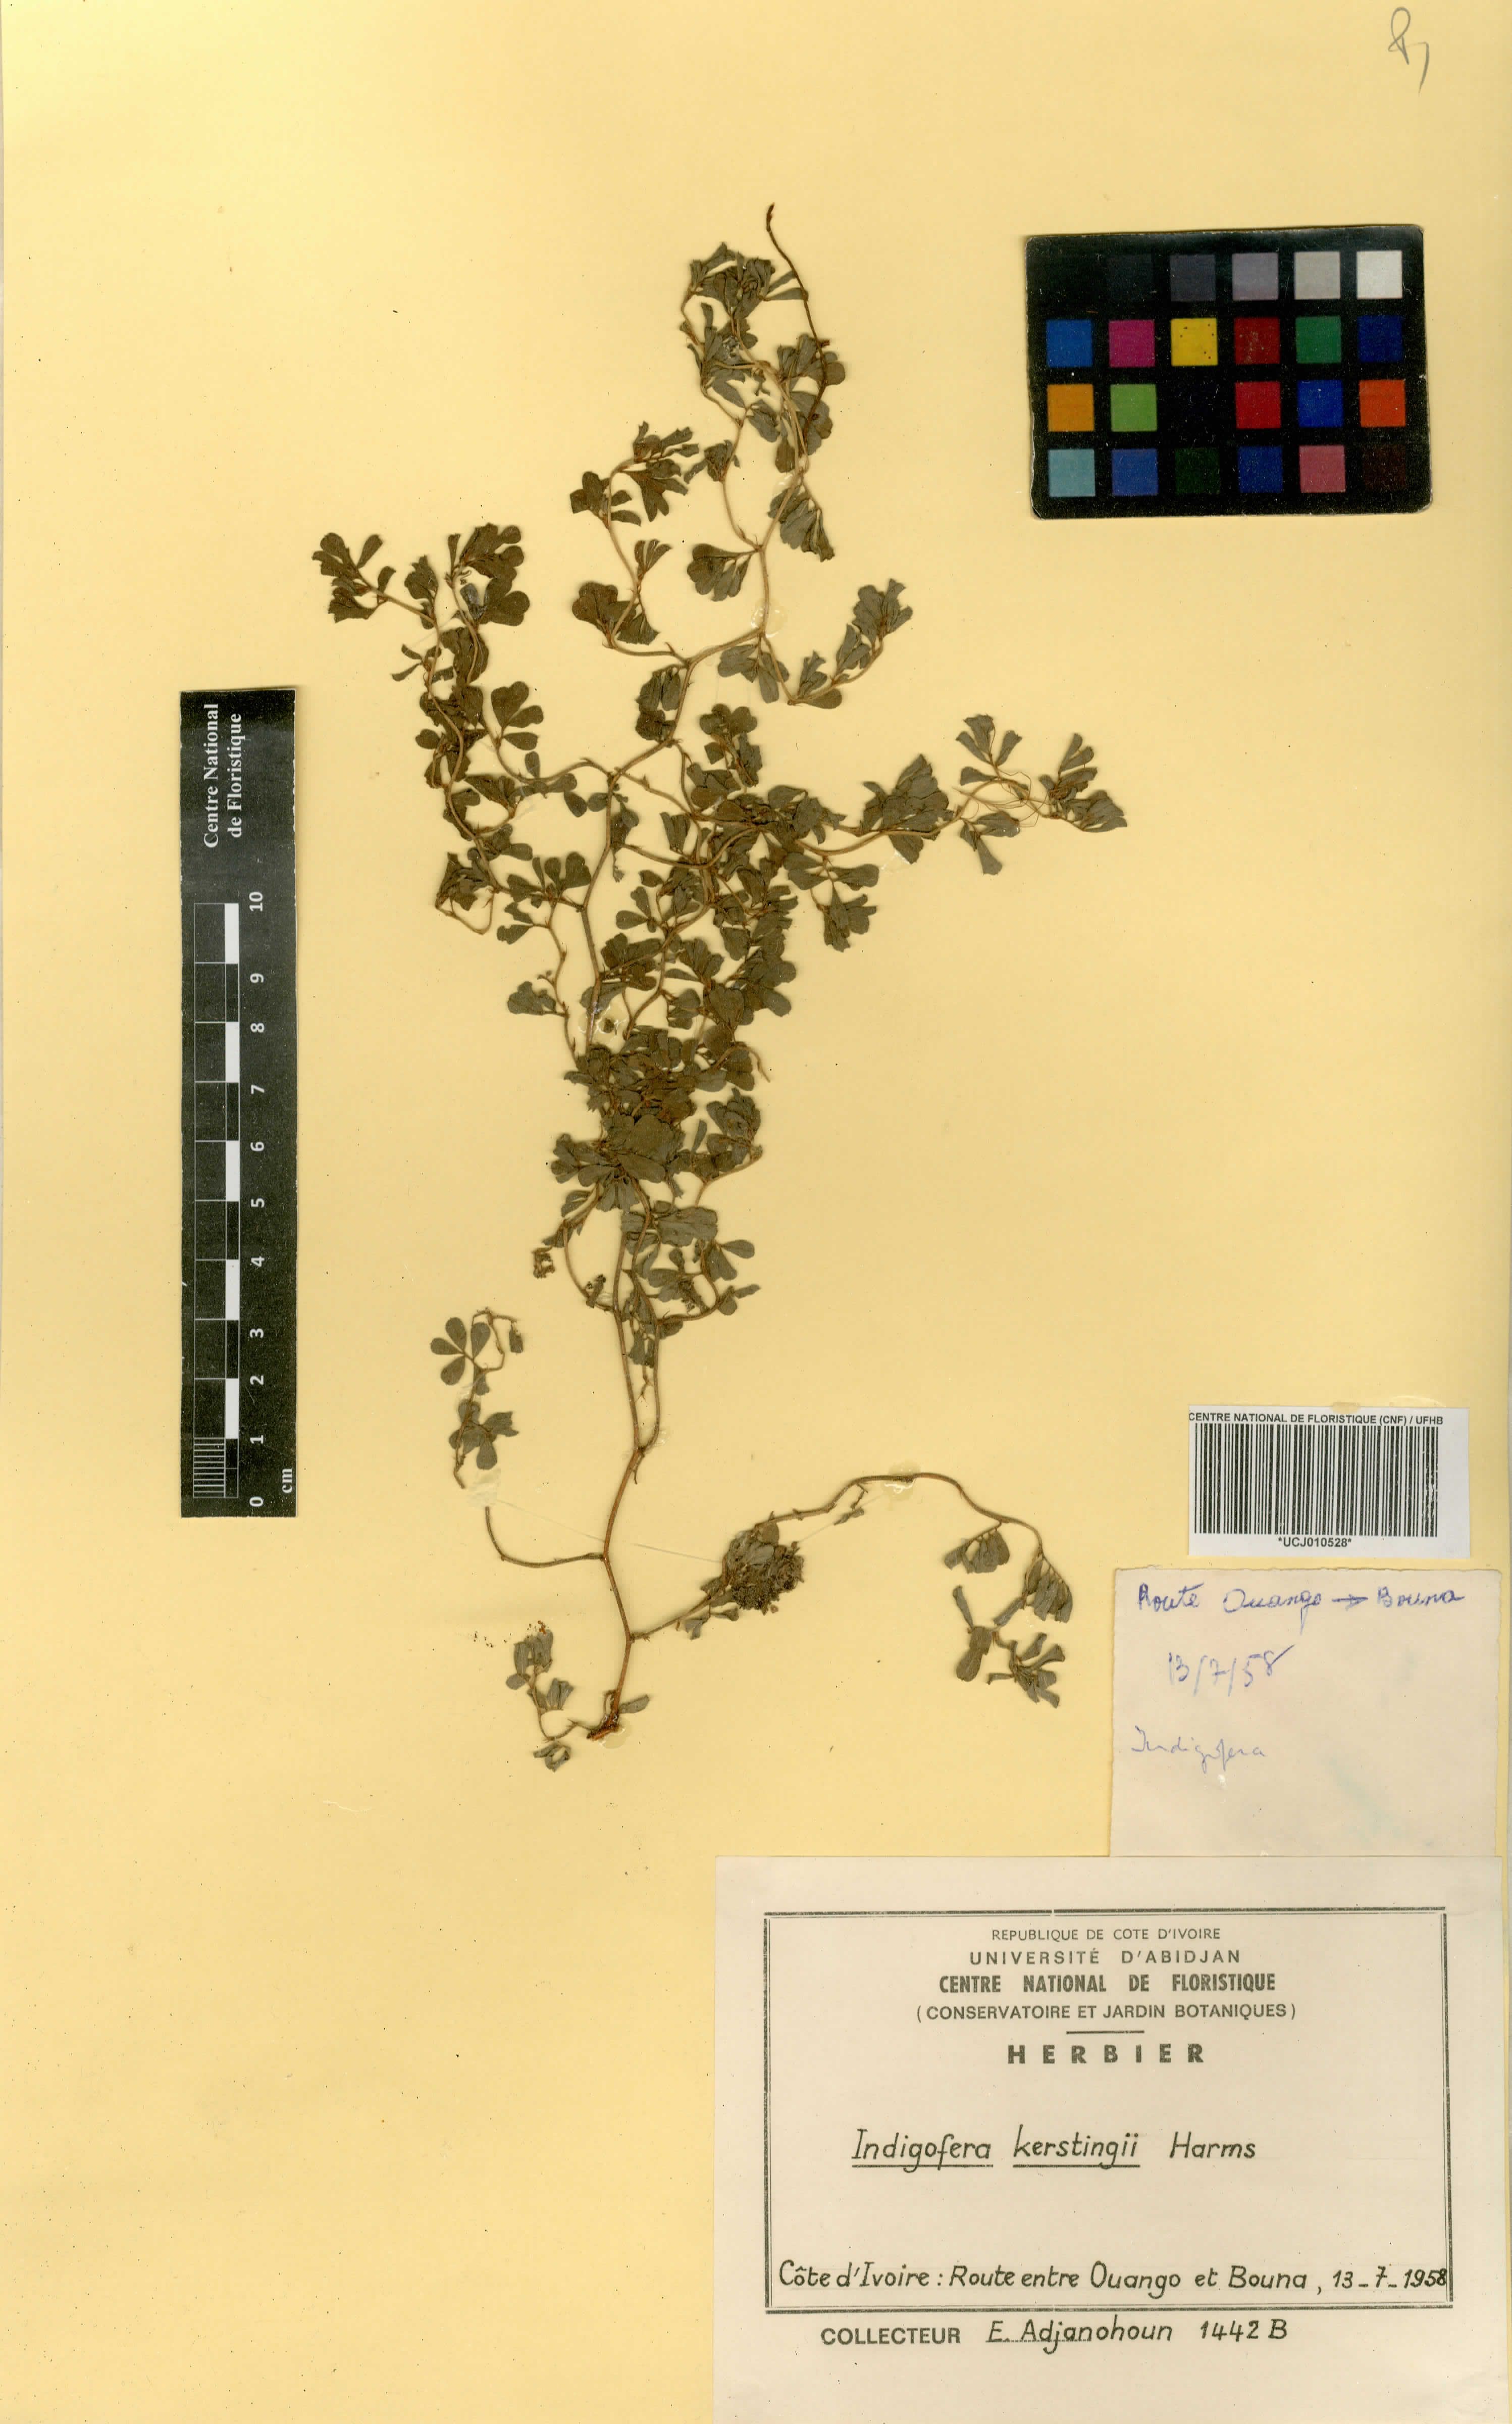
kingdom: Plantae
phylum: Tracheophyta
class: Magnoliopsida
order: Fabales
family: Fabaceae
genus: Indigofera
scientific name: Indigofera kerstingii
